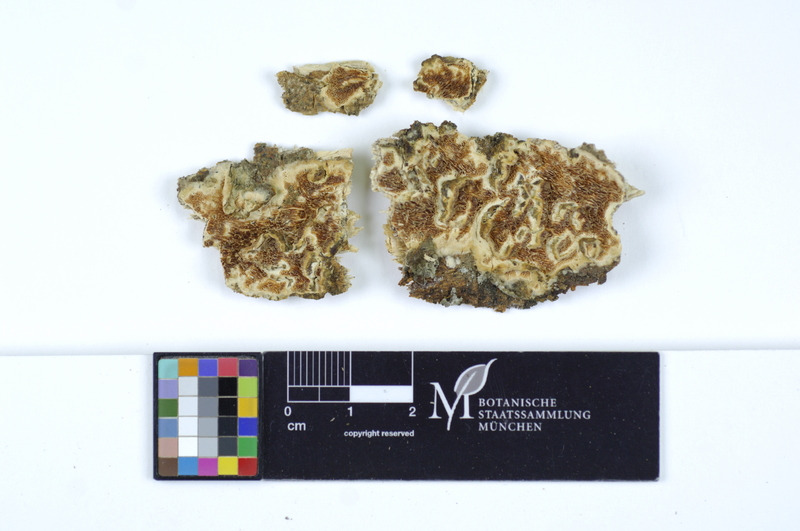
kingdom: Plantae
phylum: Tracheophyta
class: Magnoliopsida
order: Malpighiales
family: Salicaceae
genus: Salix
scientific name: Salix cinerea
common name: Common sallow
